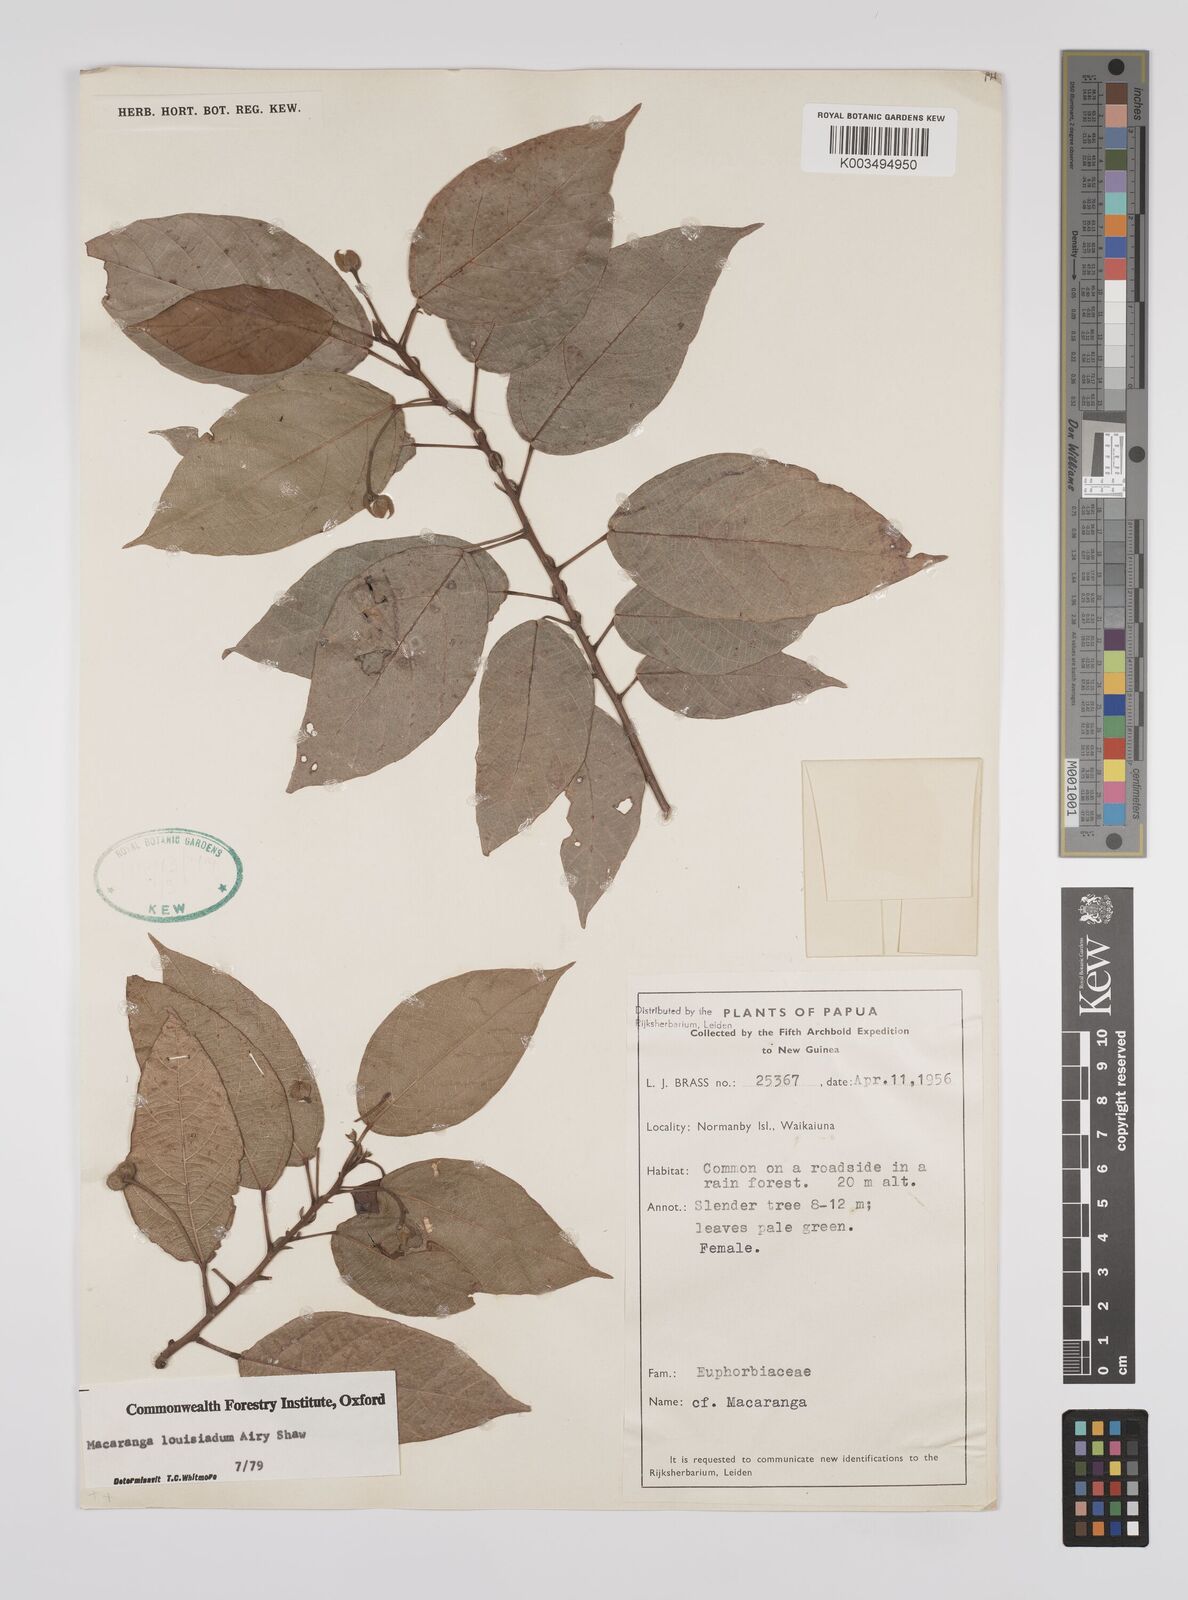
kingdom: Plantae
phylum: Tracheophyta
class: Magnoliopsida
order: Malpighiales
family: Euphorbiaceae
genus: Macaranga
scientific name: Macaranga louisiadum
